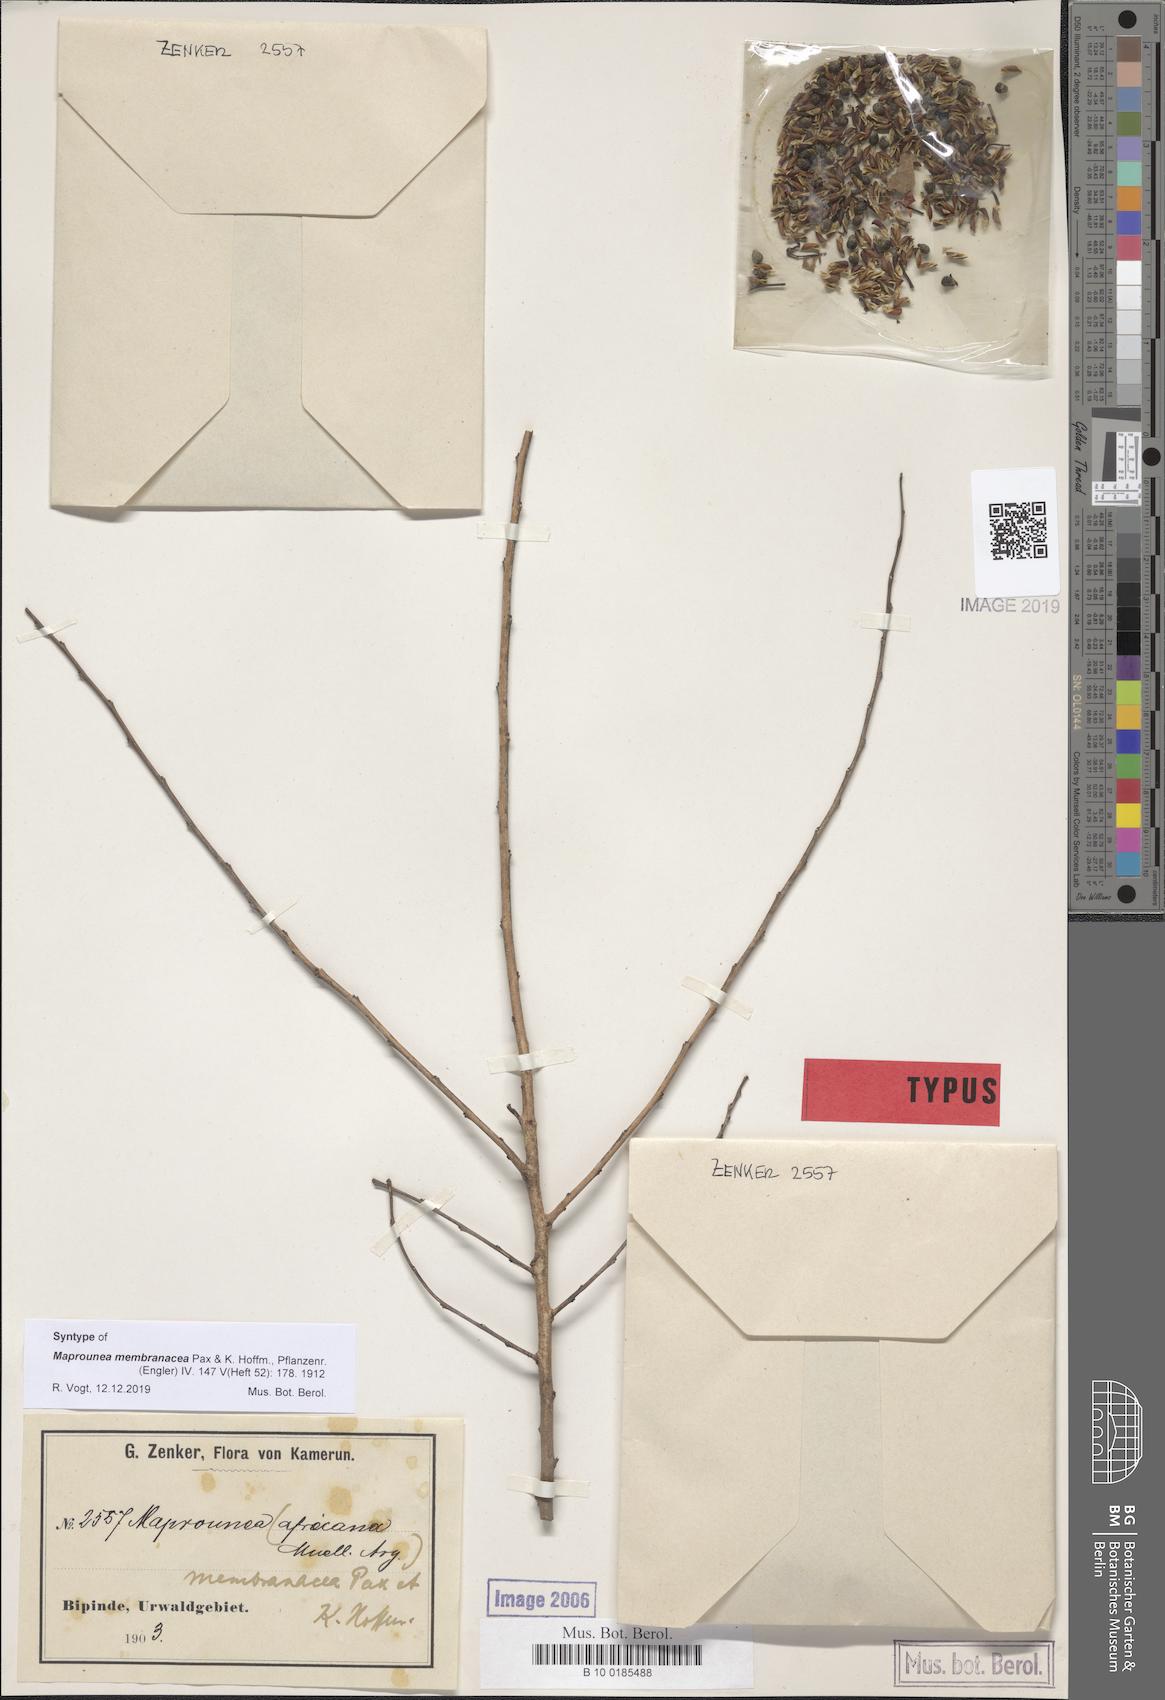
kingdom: Plantae
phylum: Tracheophyta
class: Magnoliopsida
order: Malpighiales
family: Euphorbiaceae
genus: Maprounea
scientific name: Maprounea membranacea
